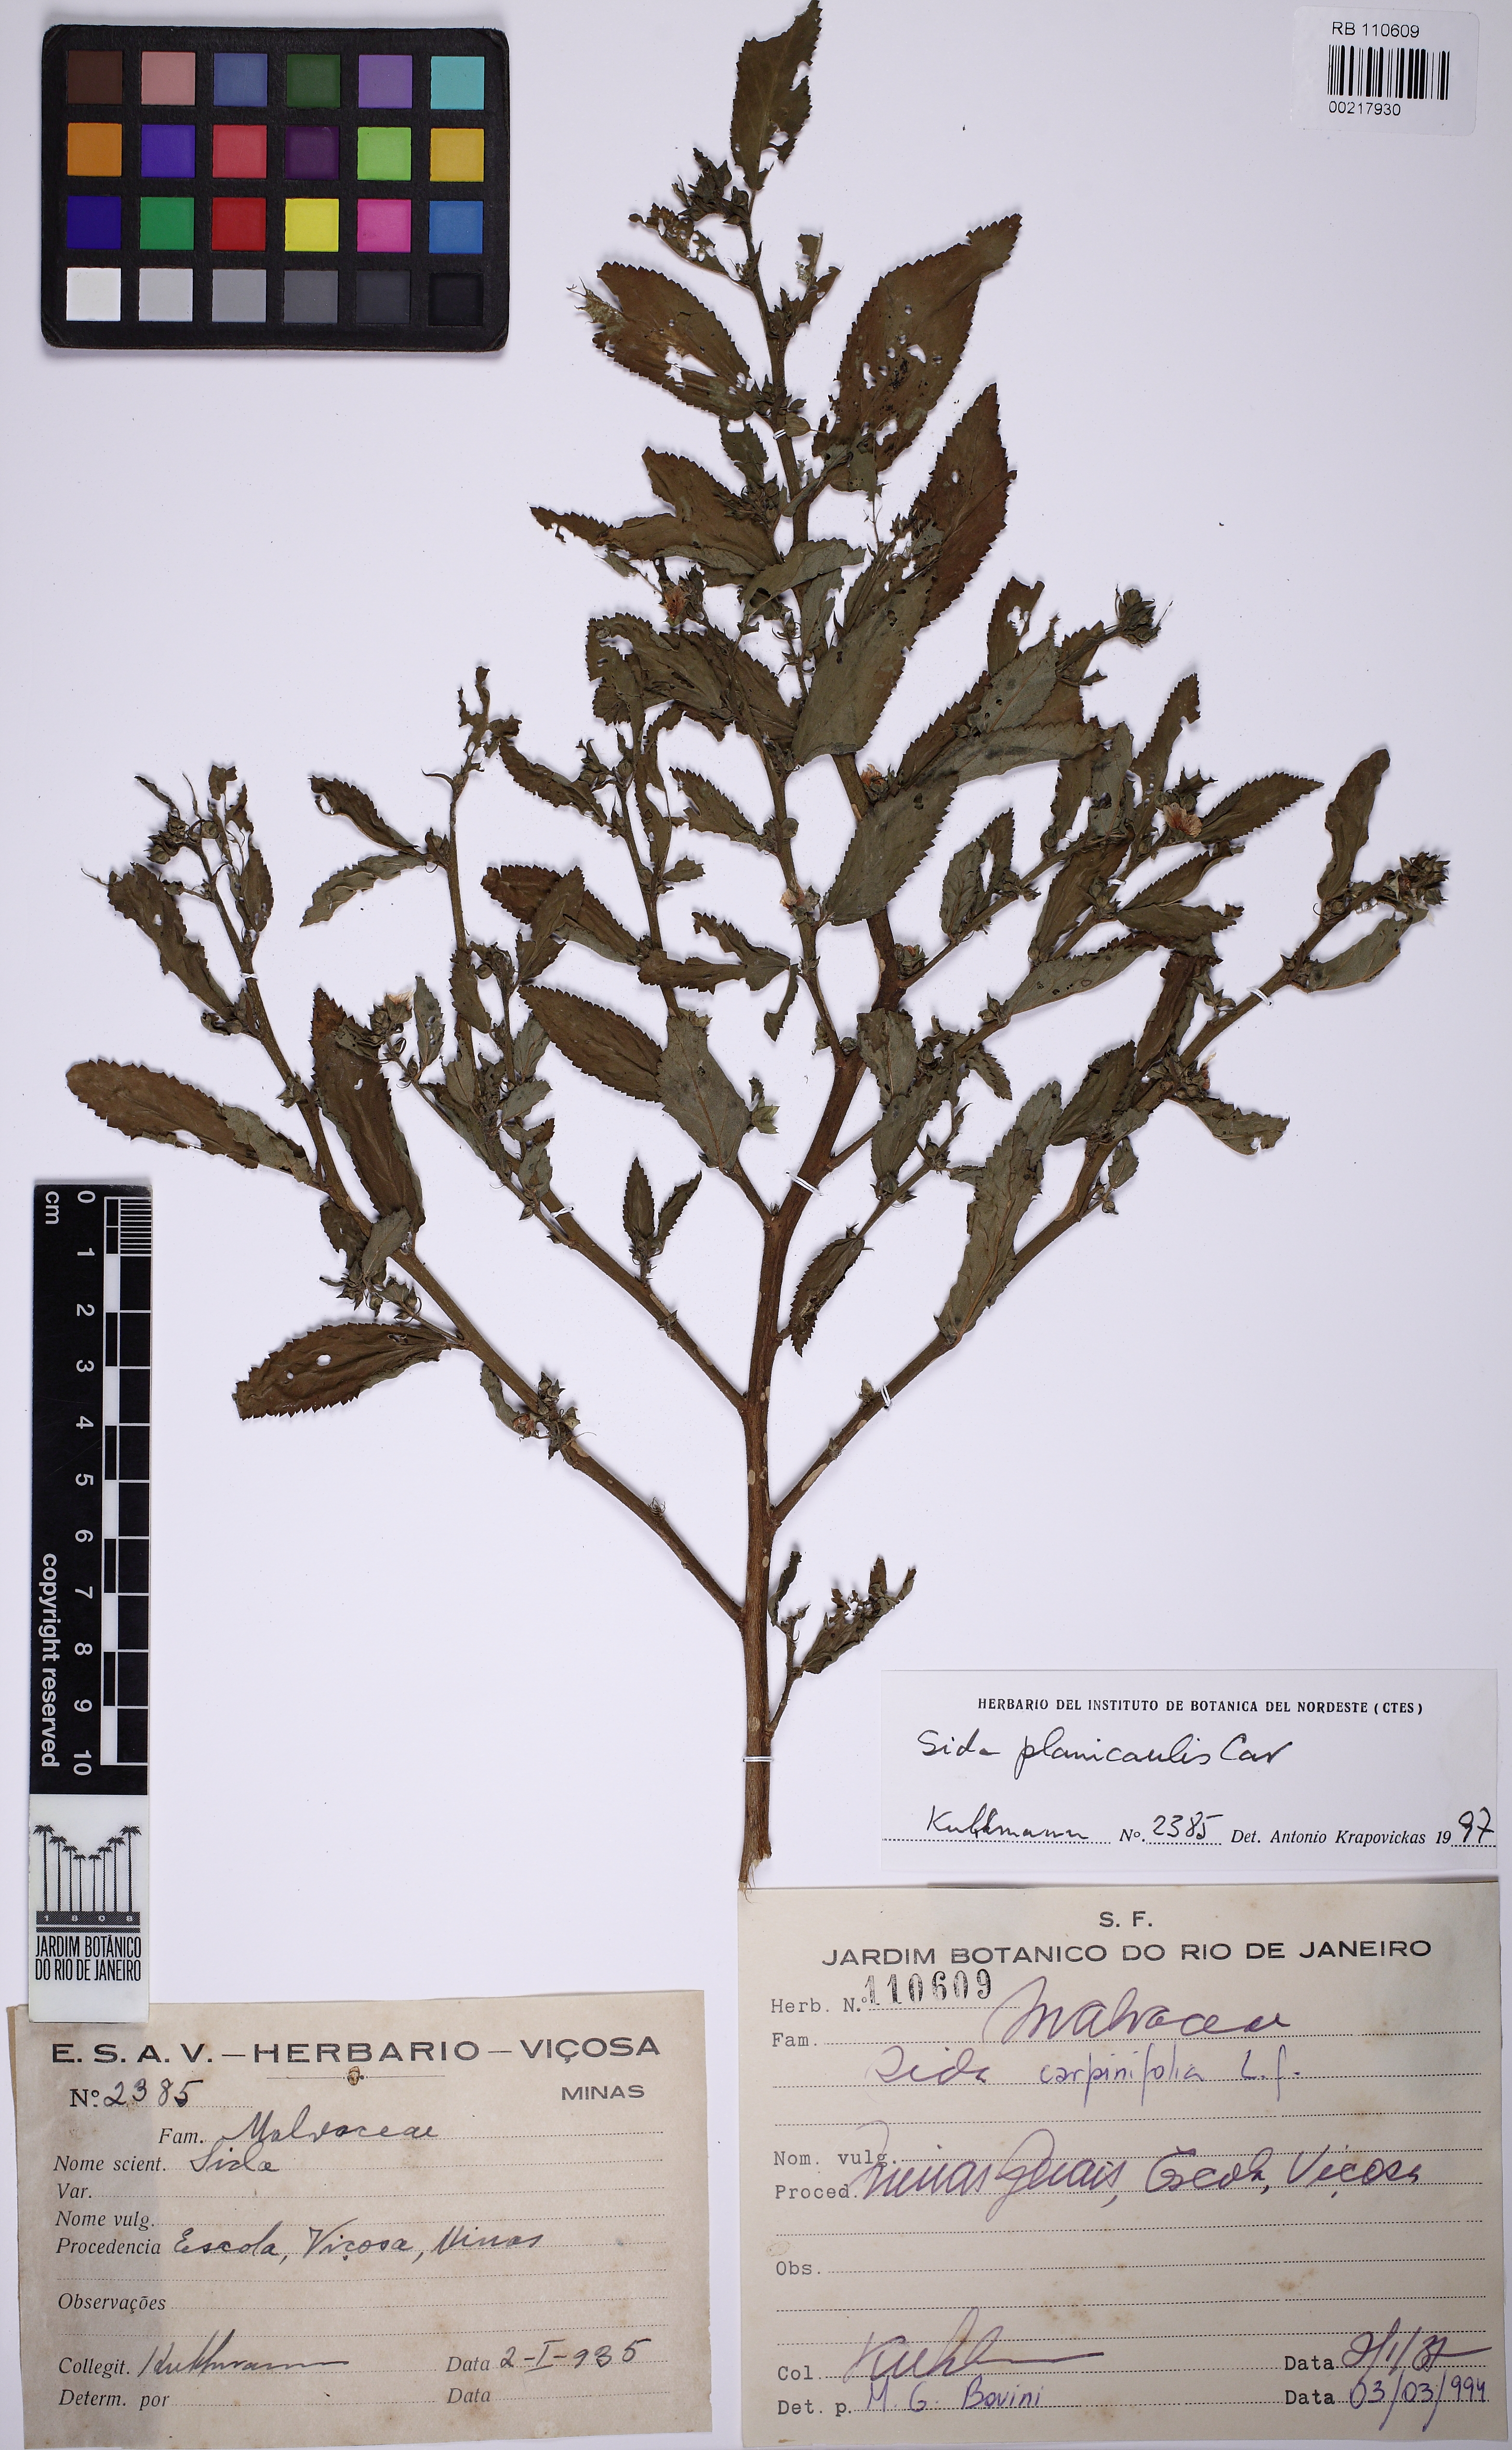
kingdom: Plantae
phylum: Tracheophyta
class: Magnoliopsida
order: Malvales
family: Malvaceae
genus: Sida
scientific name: Sida planicaulis
